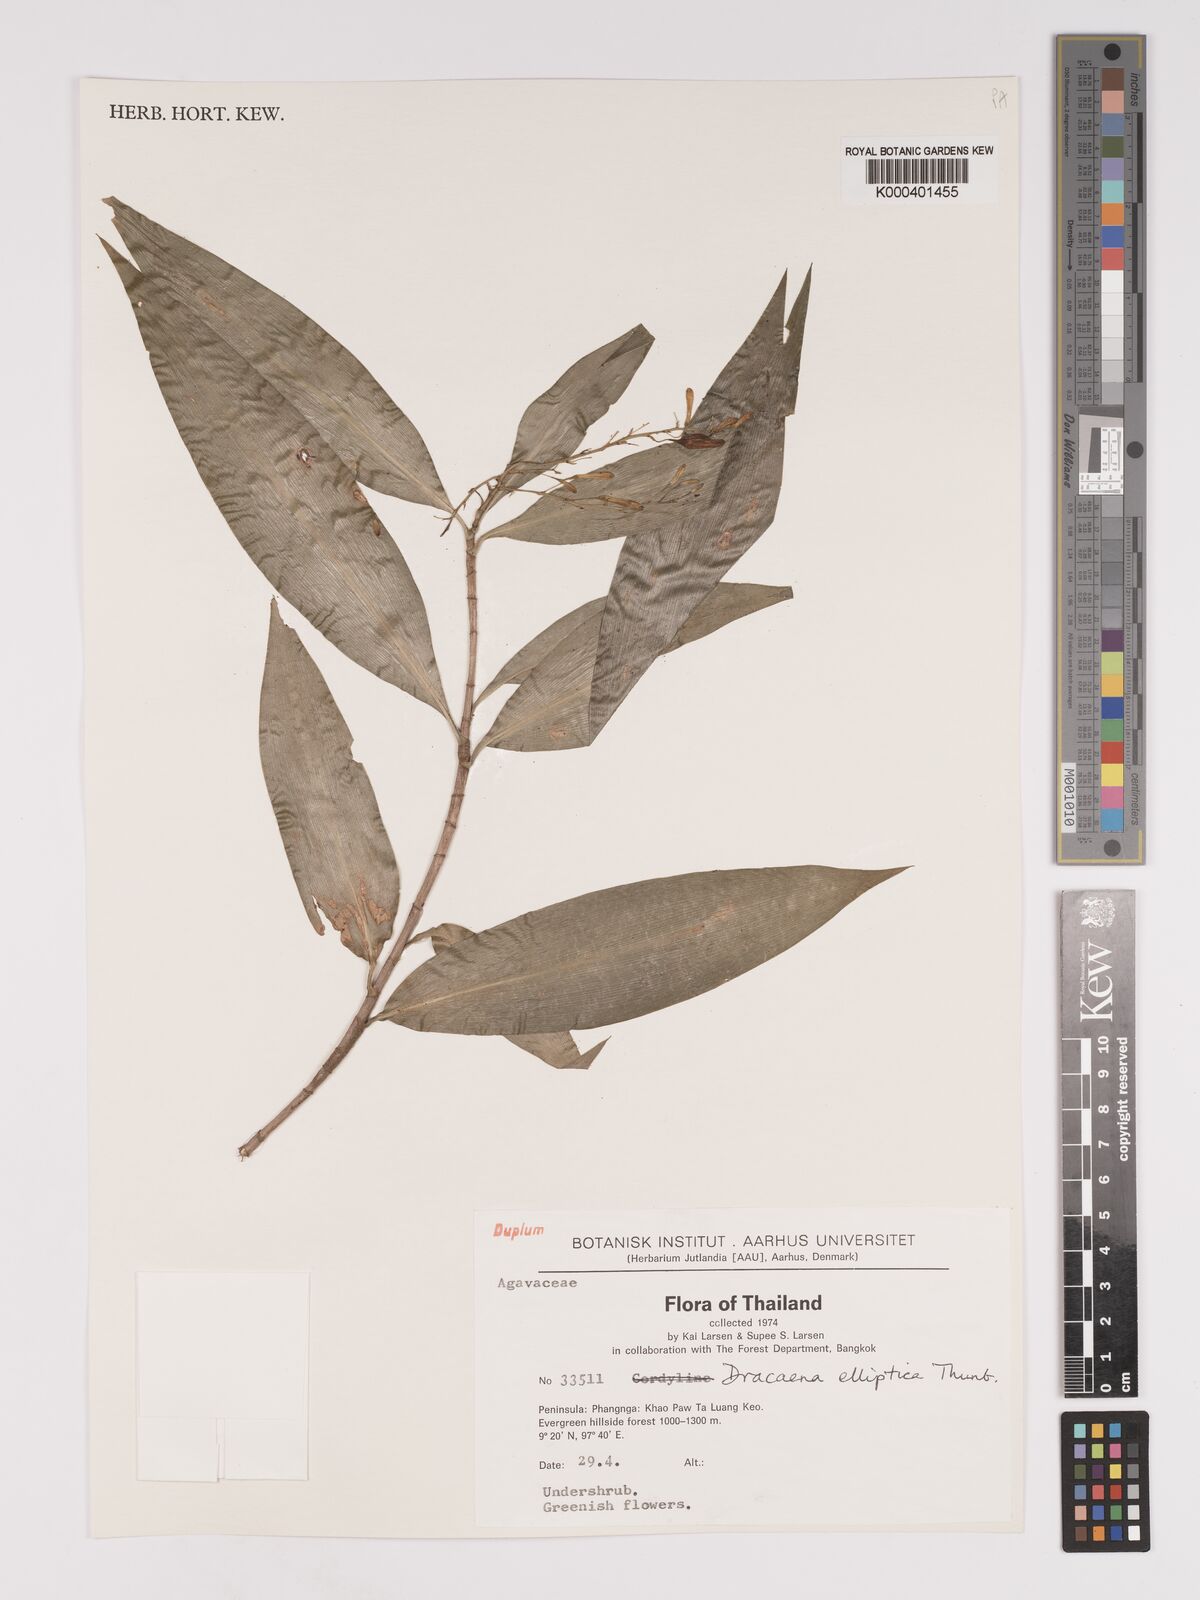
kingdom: Plantae
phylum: Tracheophyta
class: Liliopsida
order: Asparagales
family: Asparagaceae
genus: Dracaena
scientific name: Dracaena elliptica
